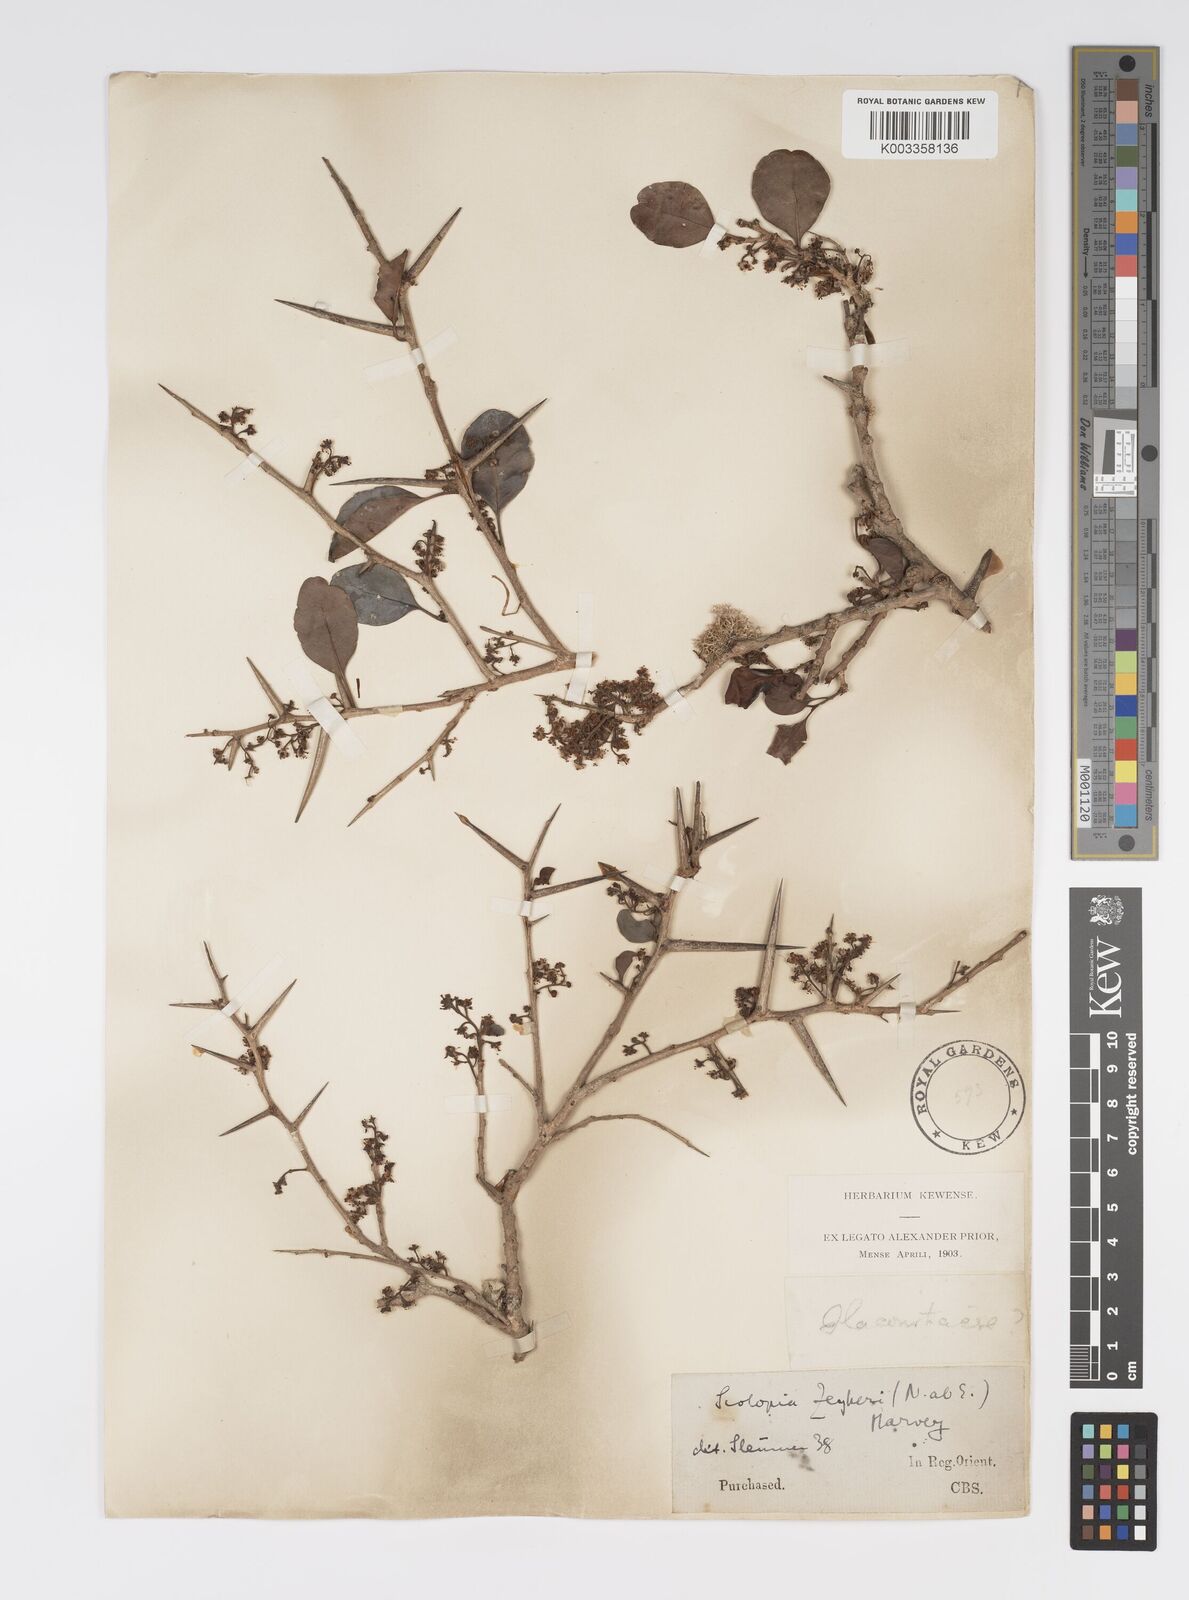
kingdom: Plantae
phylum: Tracheophyta
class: Magnoliopsida
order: Malpighiales
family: Salicaceae
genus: Scolopia
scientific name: Scolopia zeyheri
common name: Thorn pear
